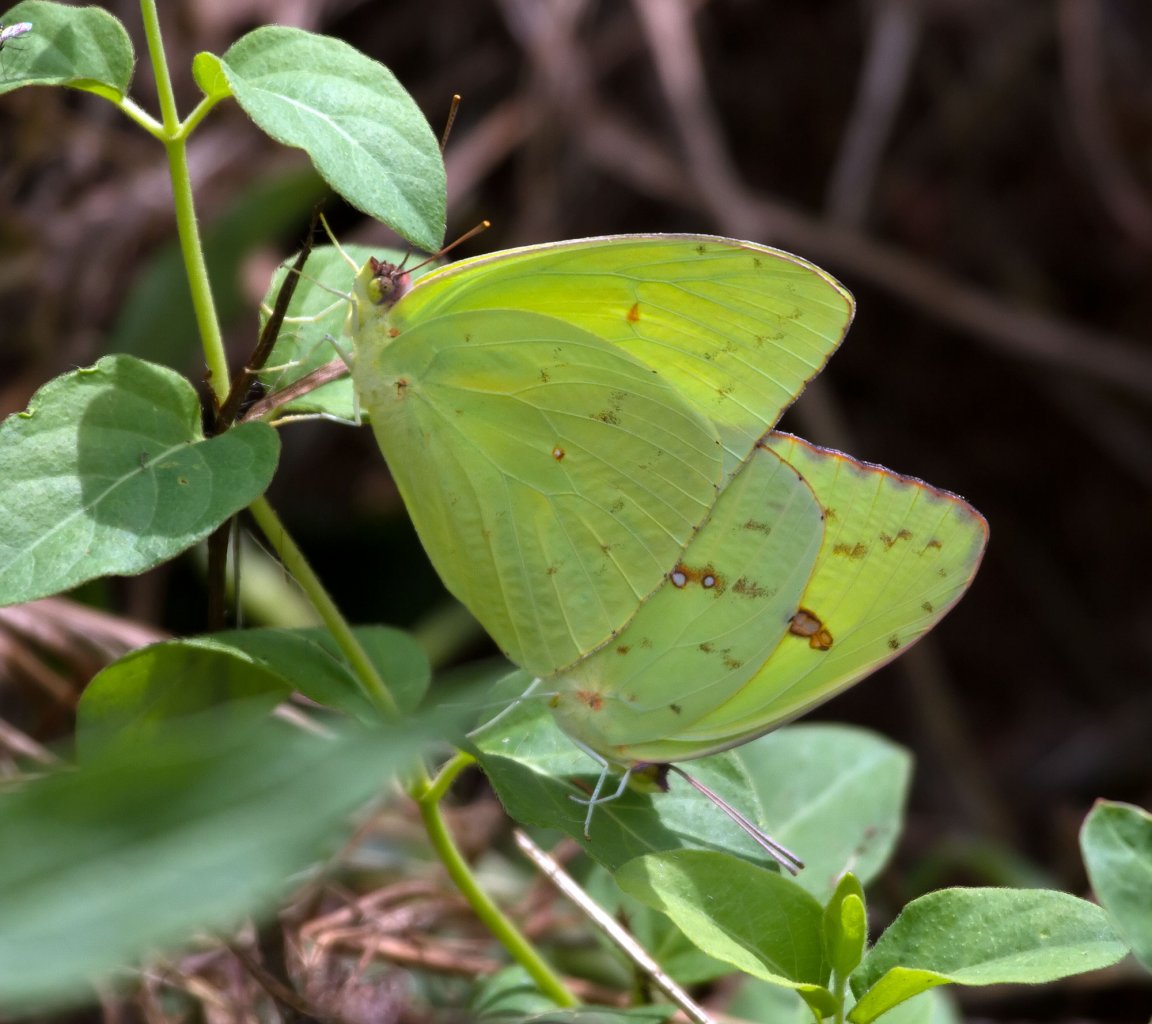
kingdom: Animalia
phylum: Arthropoda
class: Insecta
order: Lepidoptera
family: Pieridae
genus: Phoebis
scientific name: Phoebis sennae
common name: Cloudless Sulphur
